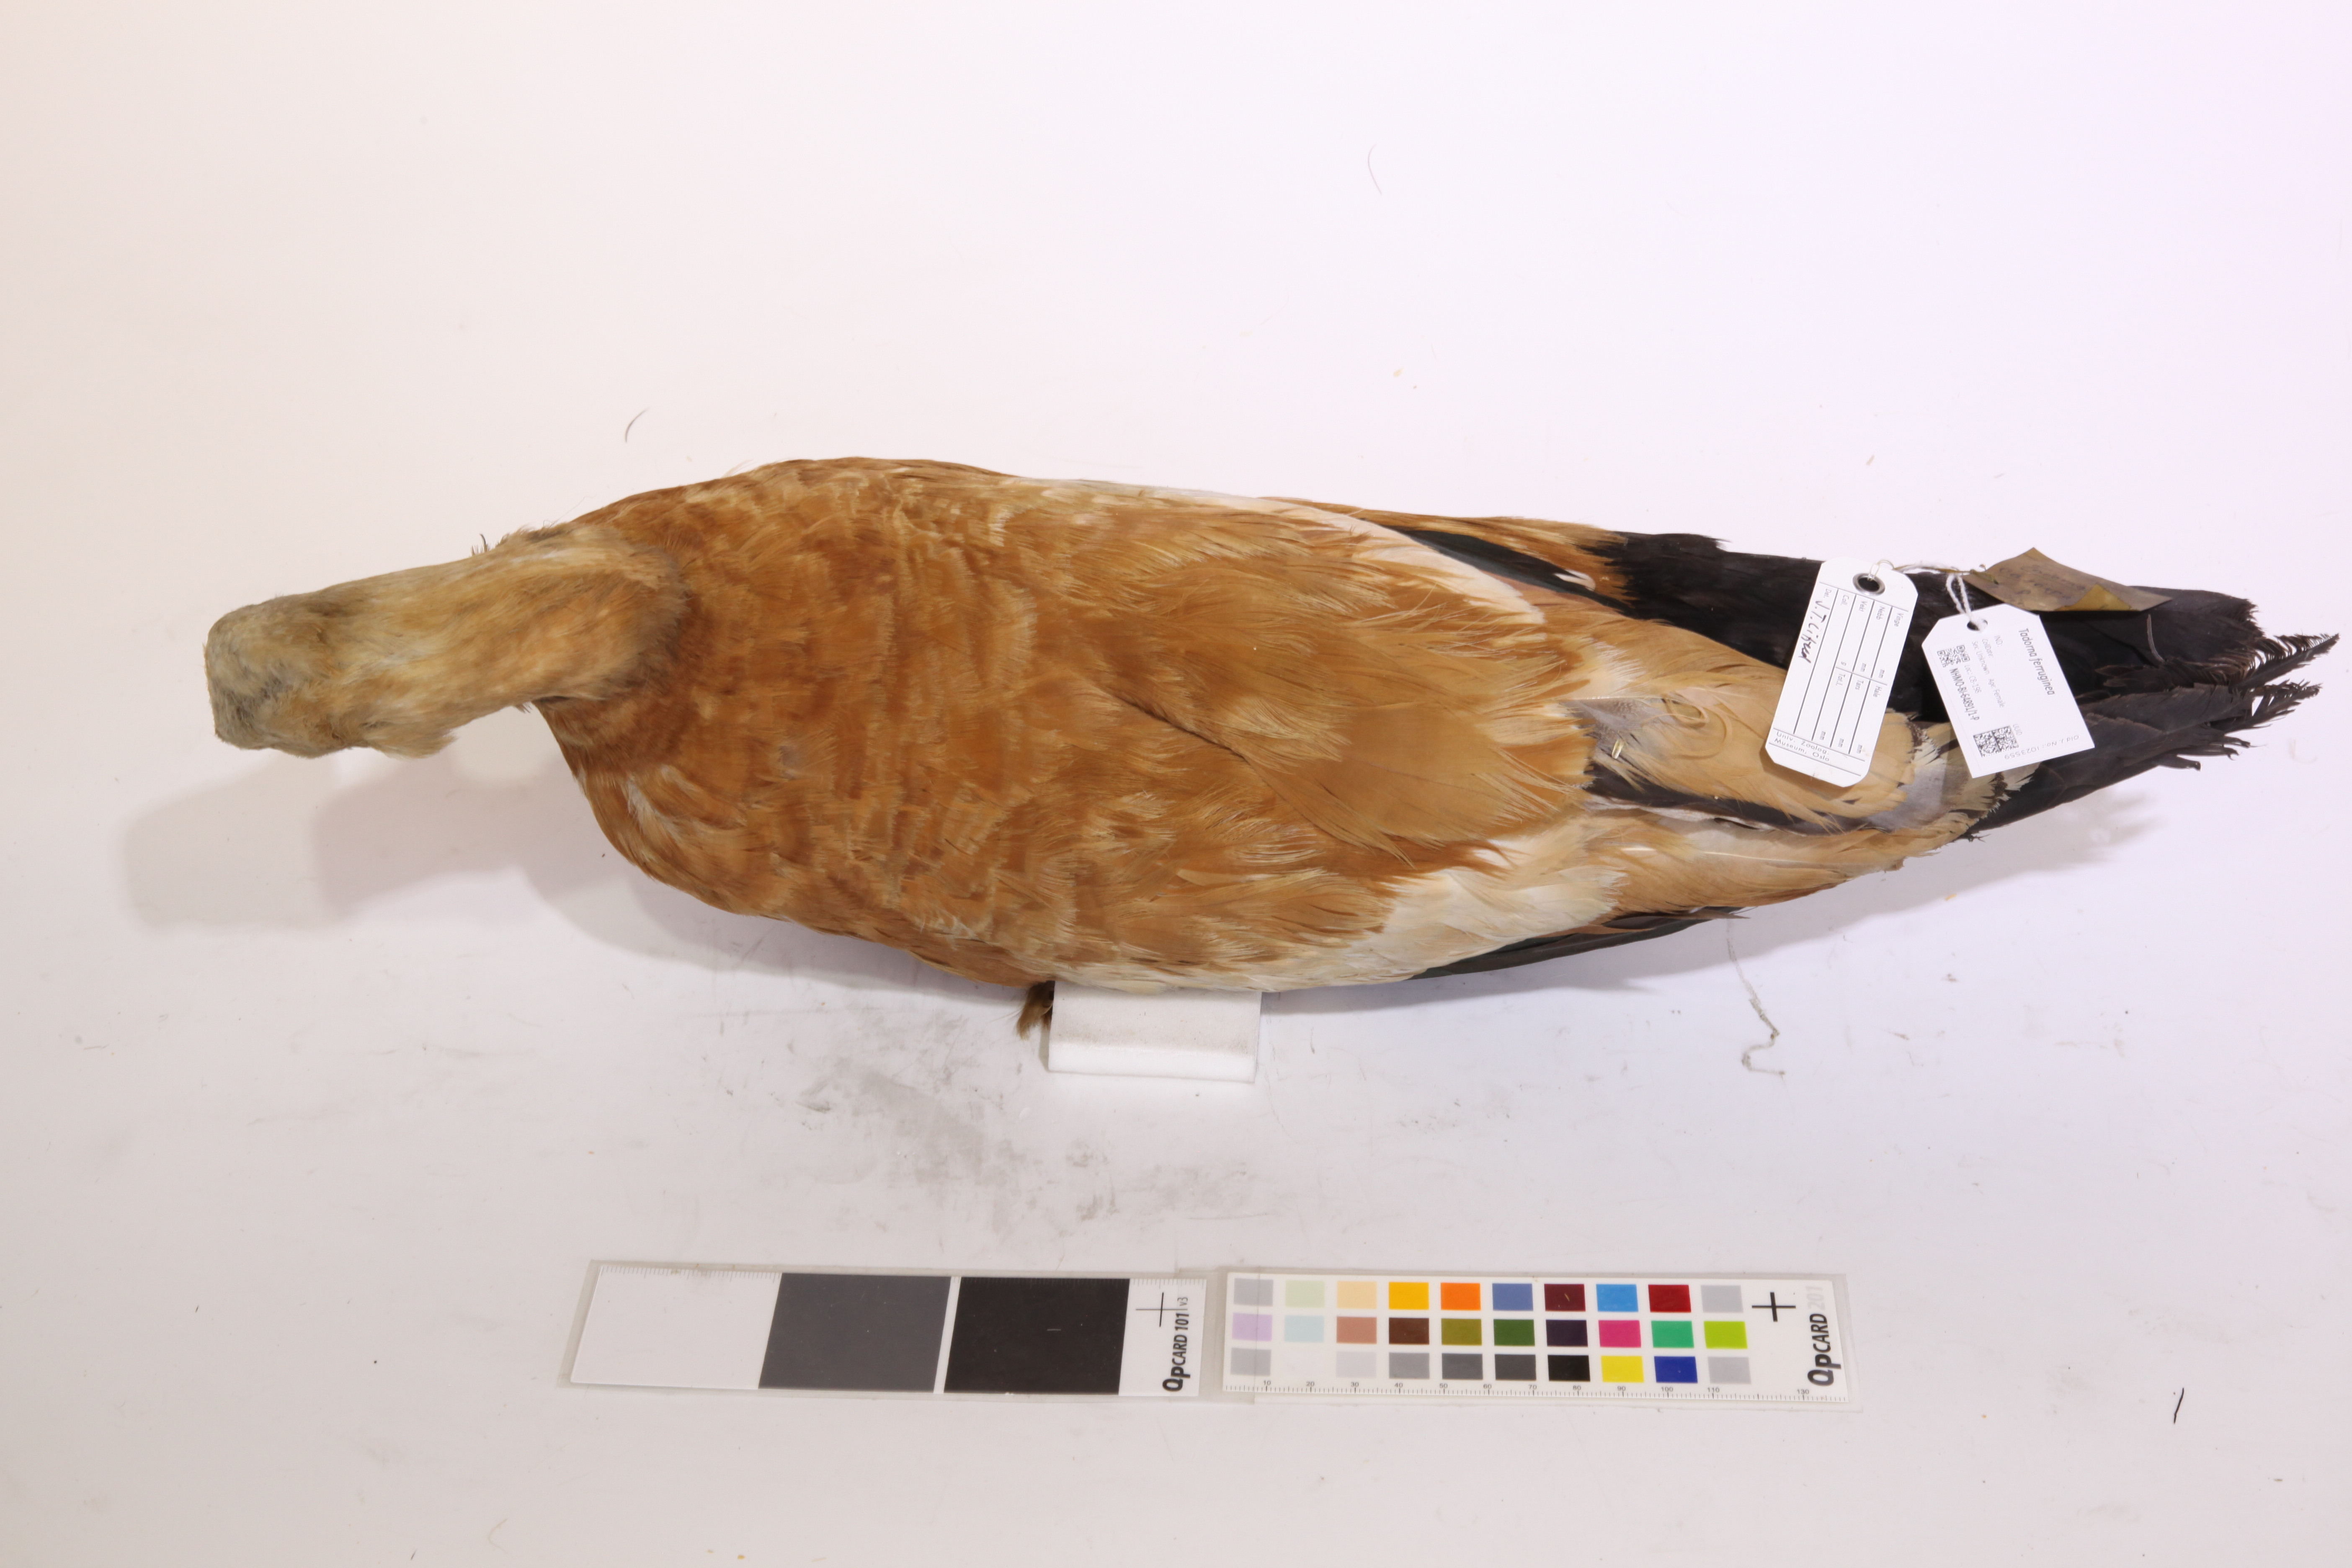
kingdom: Animalia
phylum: Chordata
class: Aves
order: Anseriformes
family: Anatidae
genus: Tadorna
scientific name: Tadorna ferruginea
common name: Ruddy shelduck
